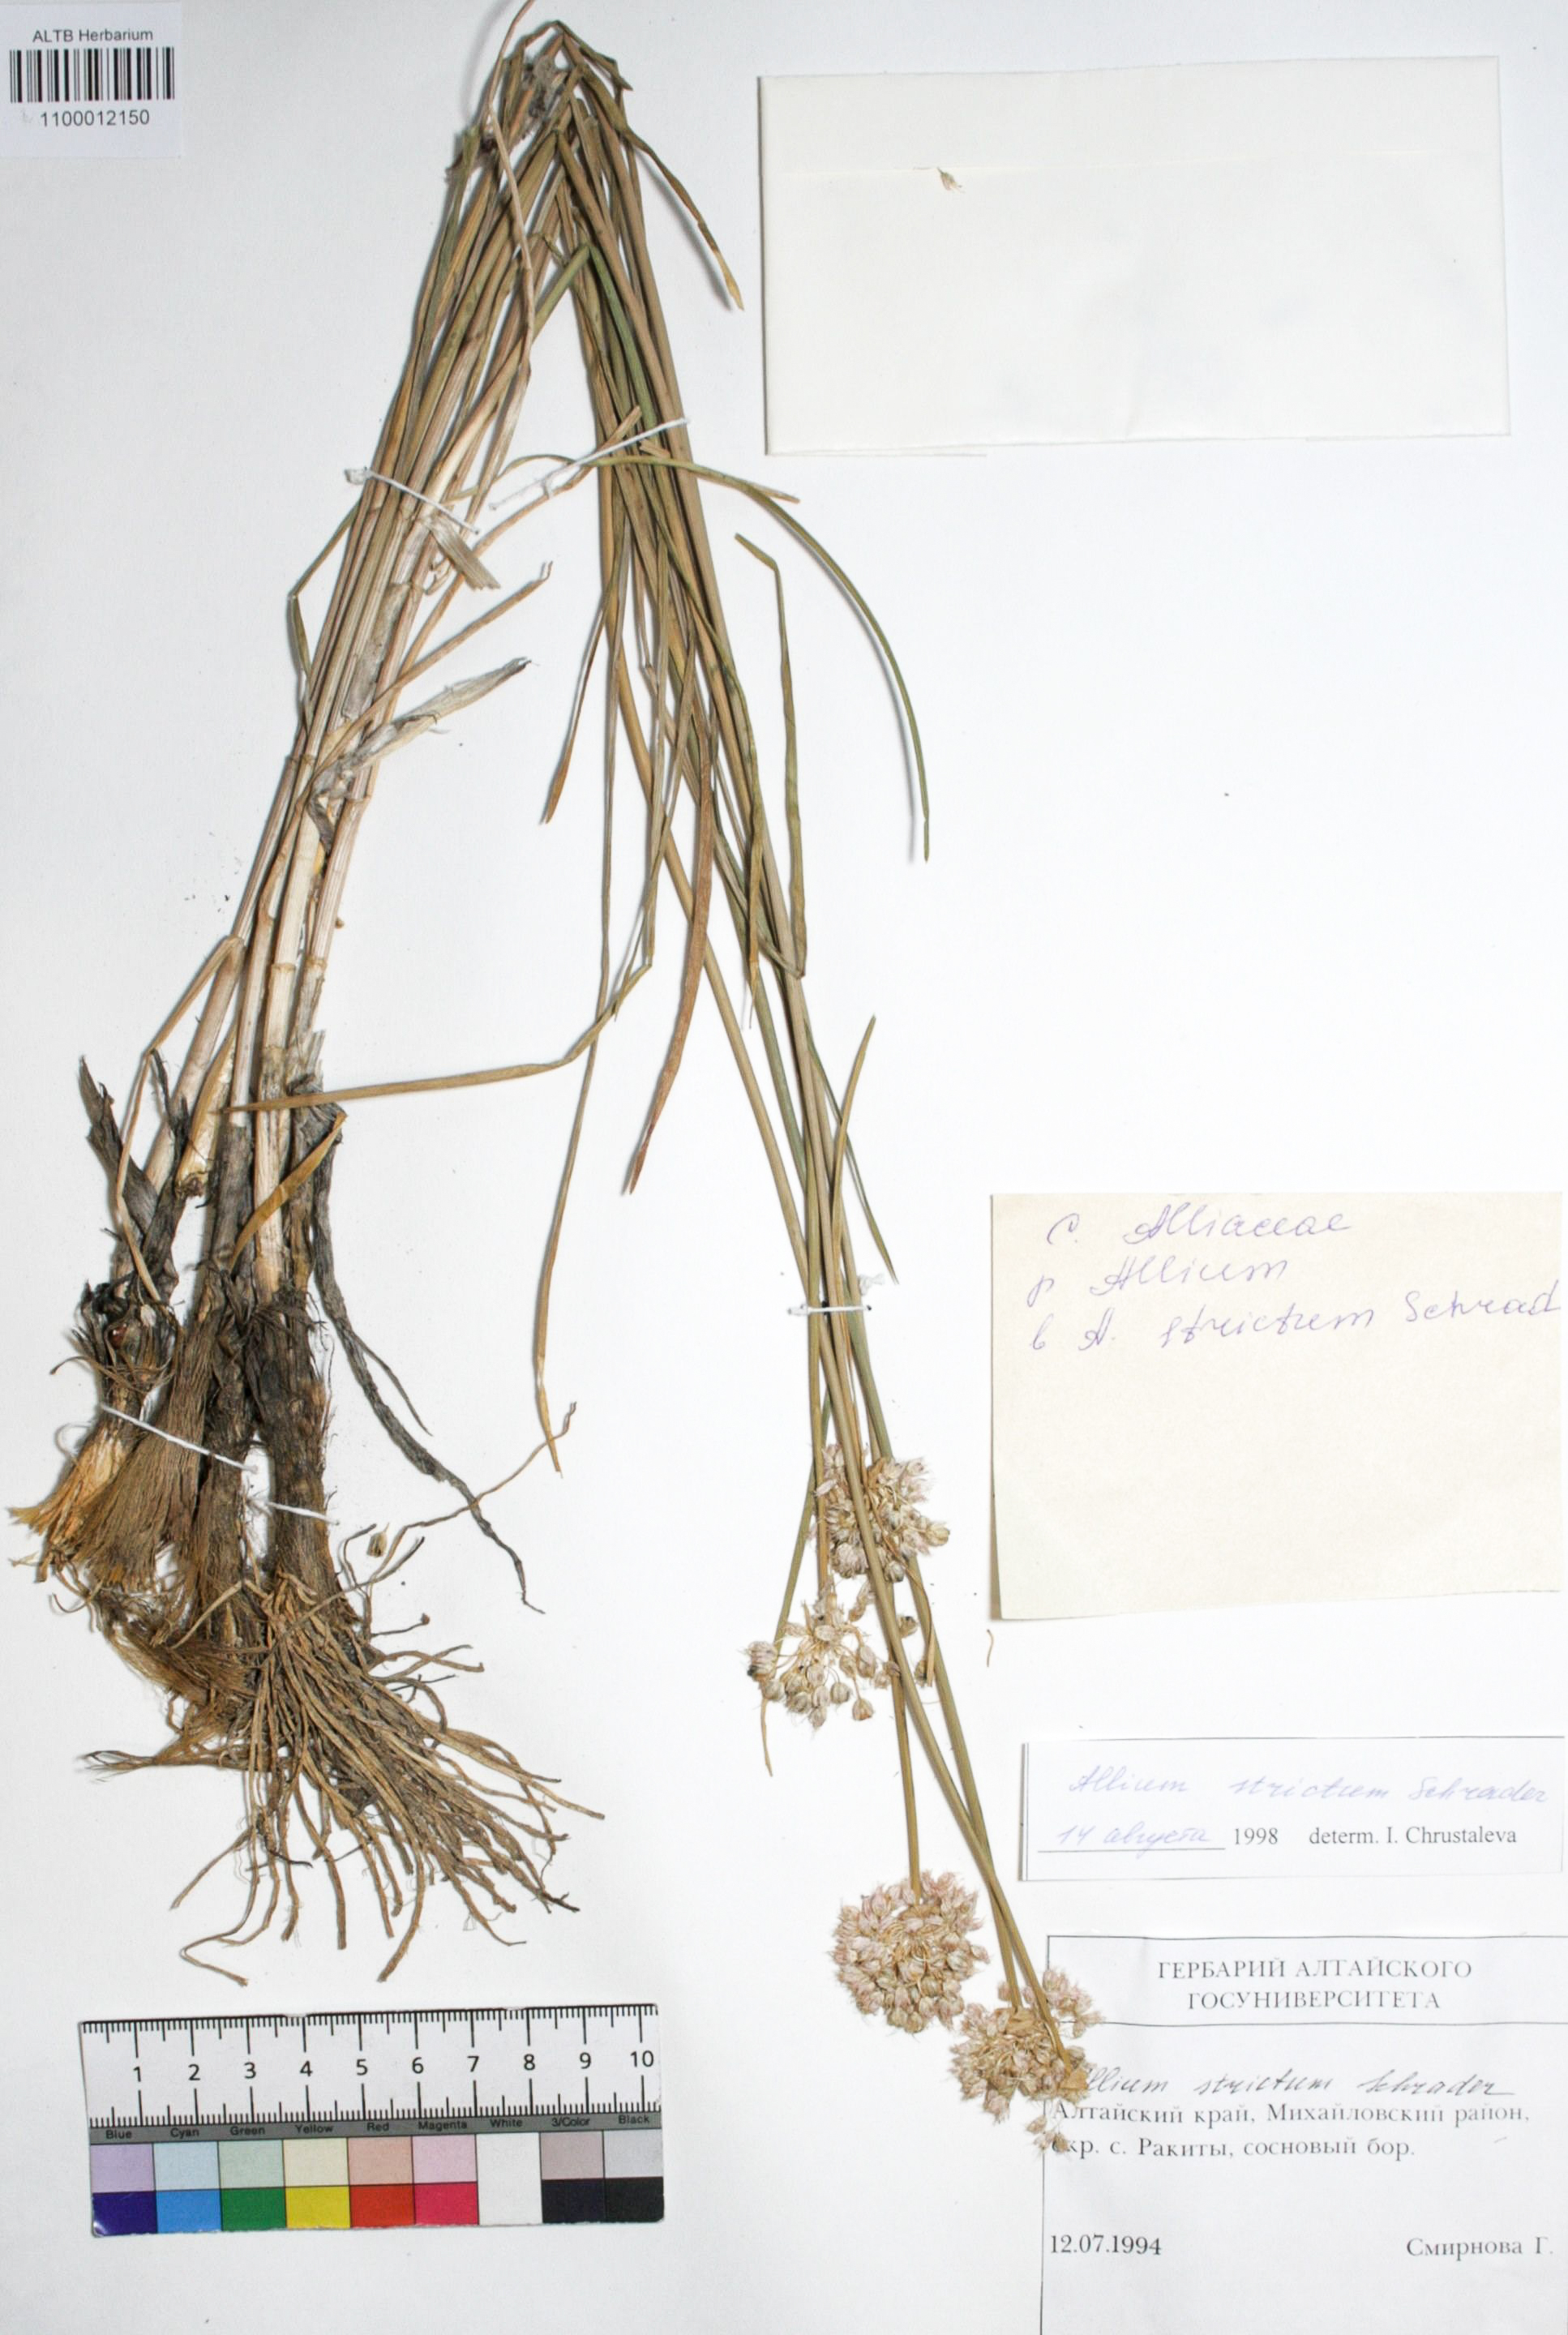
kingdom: Plantae
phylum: Tracheophyta
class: Liliopsida
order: Asparagales
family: Amaryllidaceae
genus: Allium
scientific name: Allium strictum
